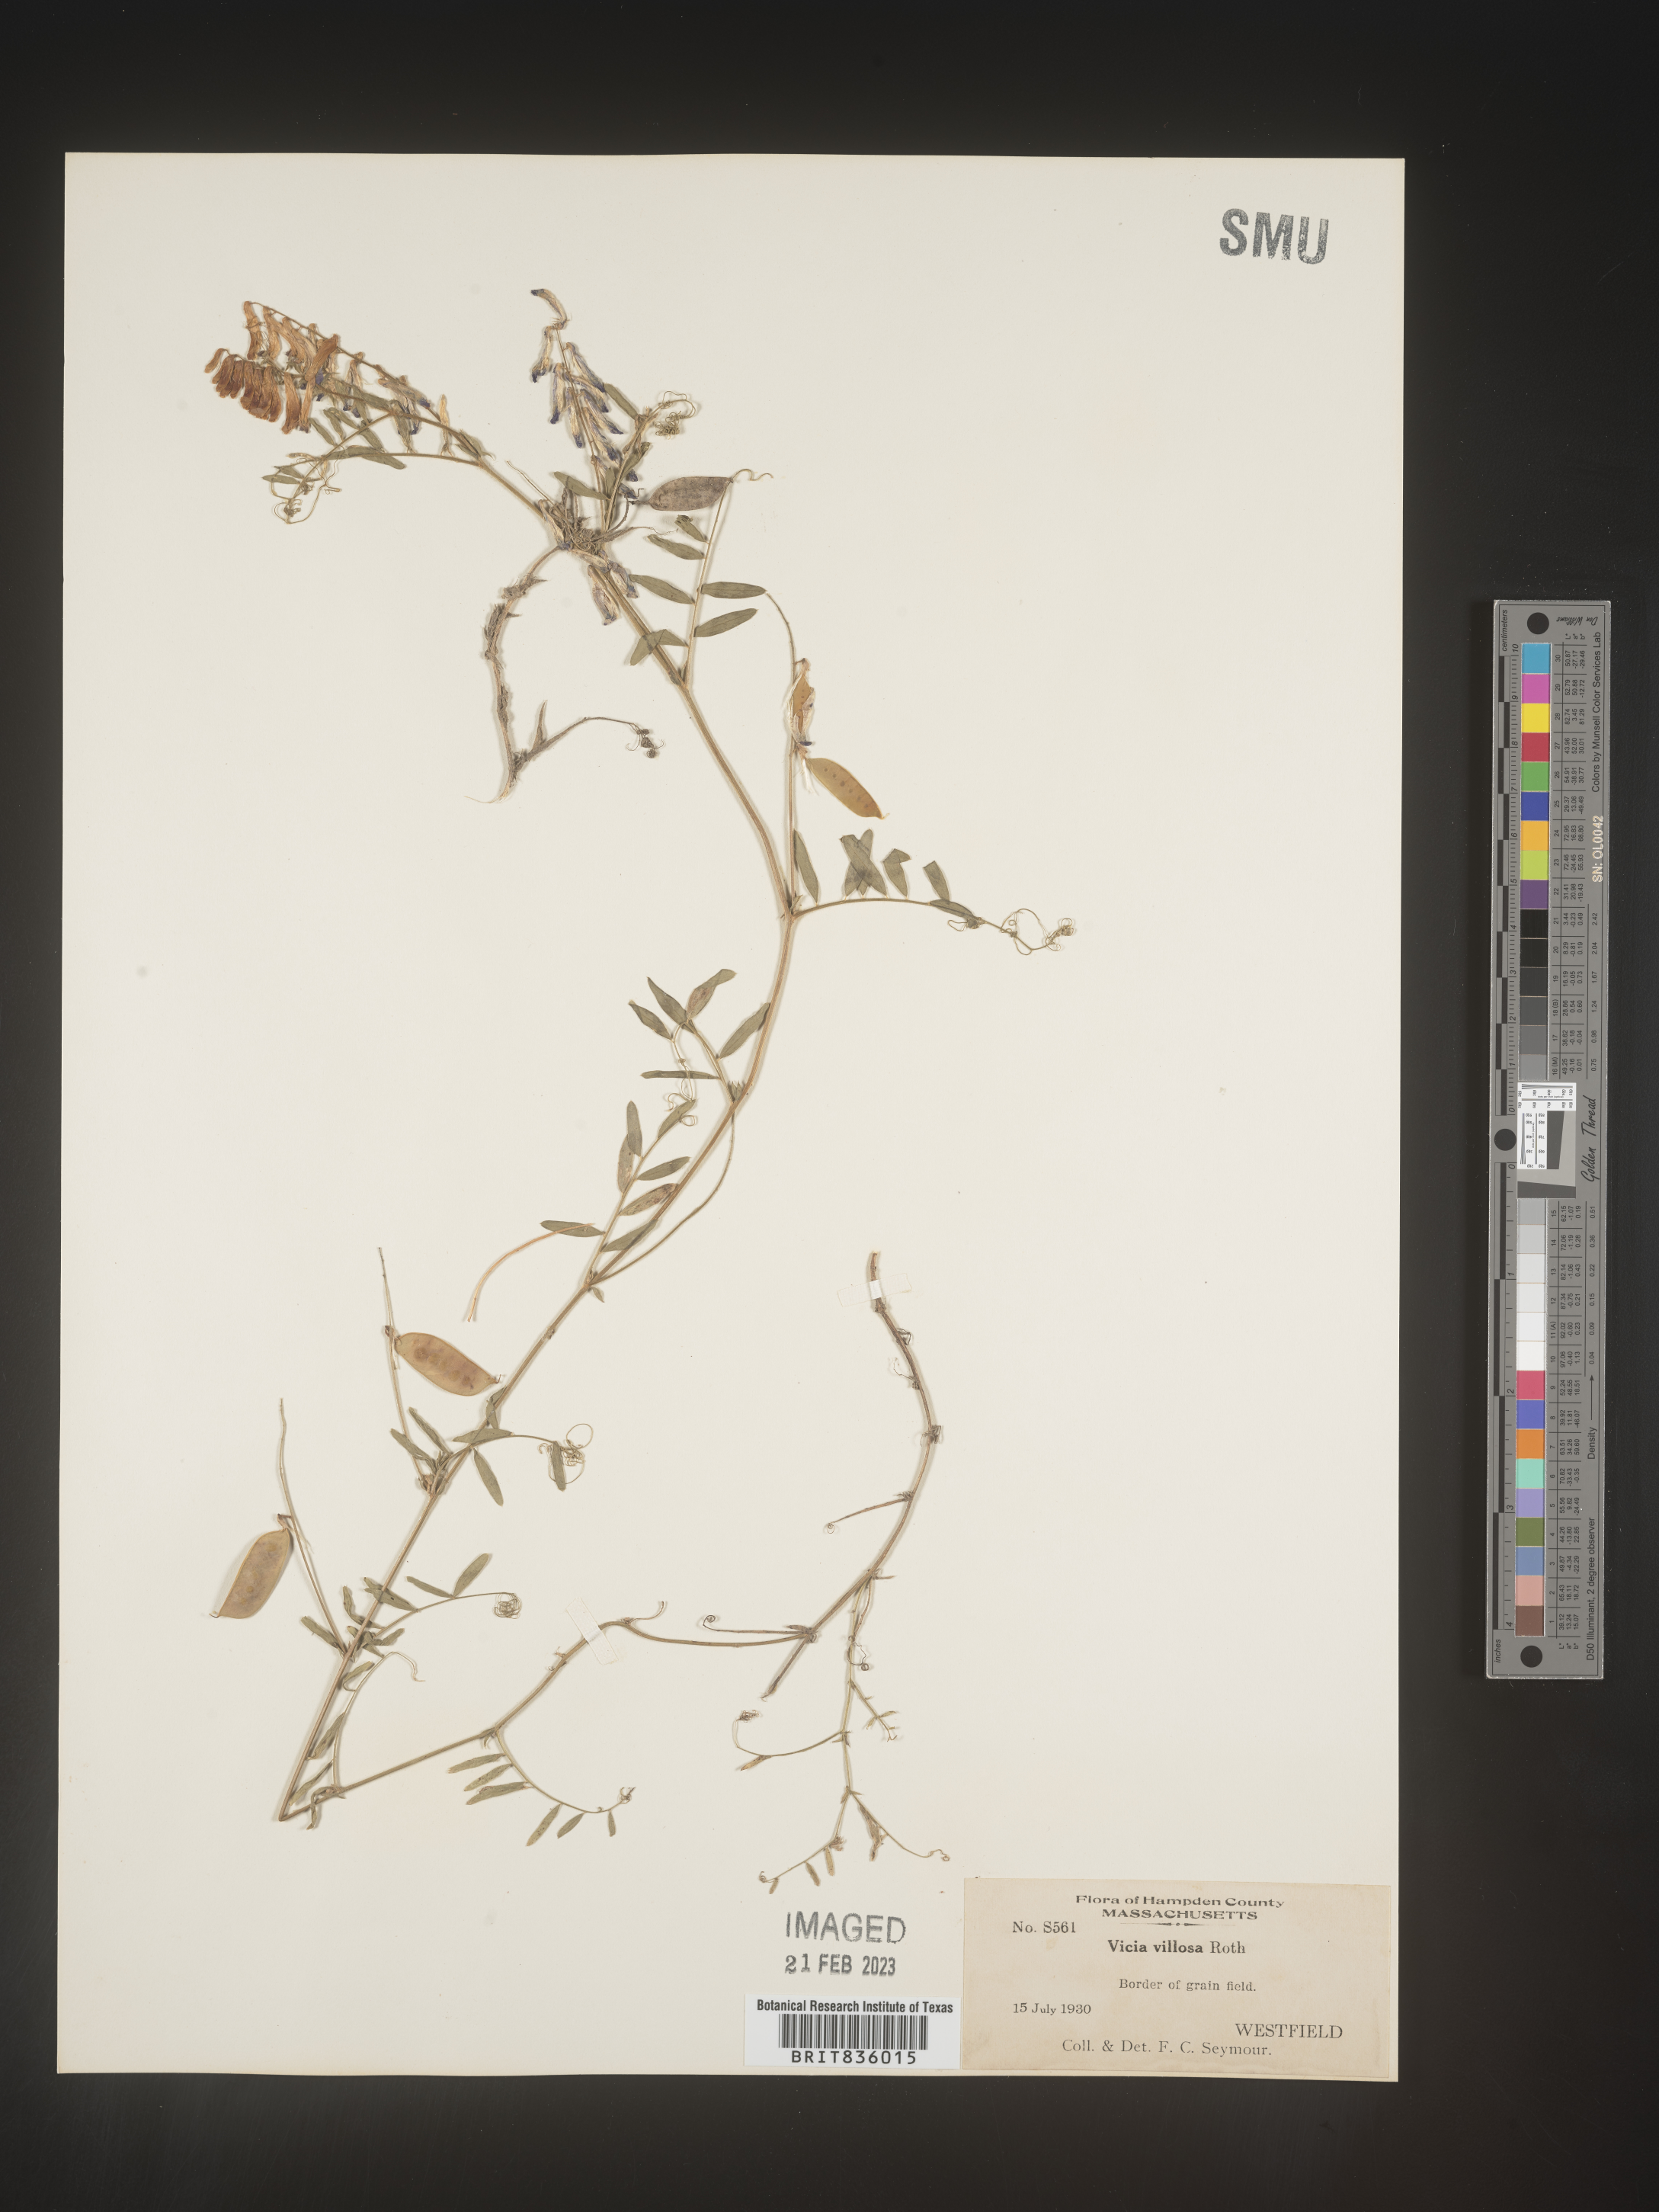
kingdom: Plantae
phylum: Tracheophyta
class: Magnoliopsida
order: Fabales
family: Fabaceae
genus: Vicia
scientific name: Vicia villosa
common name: Fodder vetch
